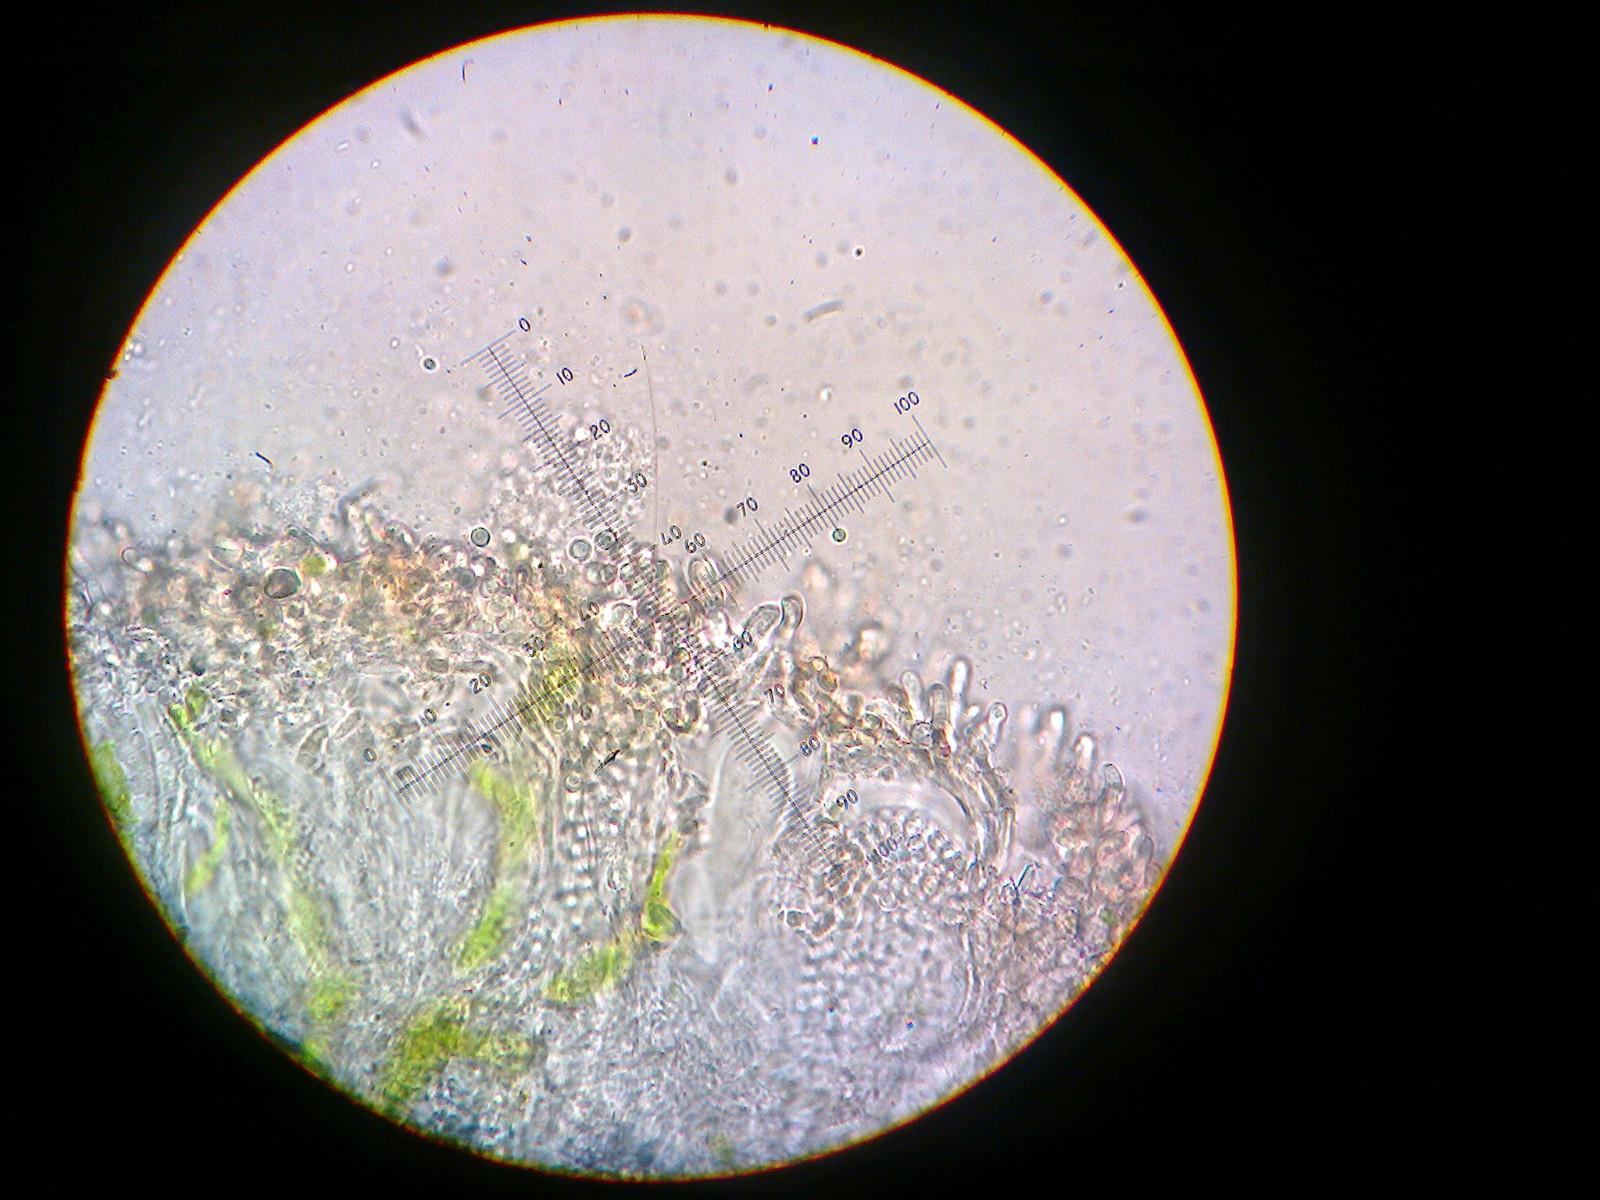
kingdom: Fungi
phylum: Ascomycota
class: Lecanoromycetes
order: Lecanorales
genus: Biatoridium
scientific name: Biatoridium monasteriense
